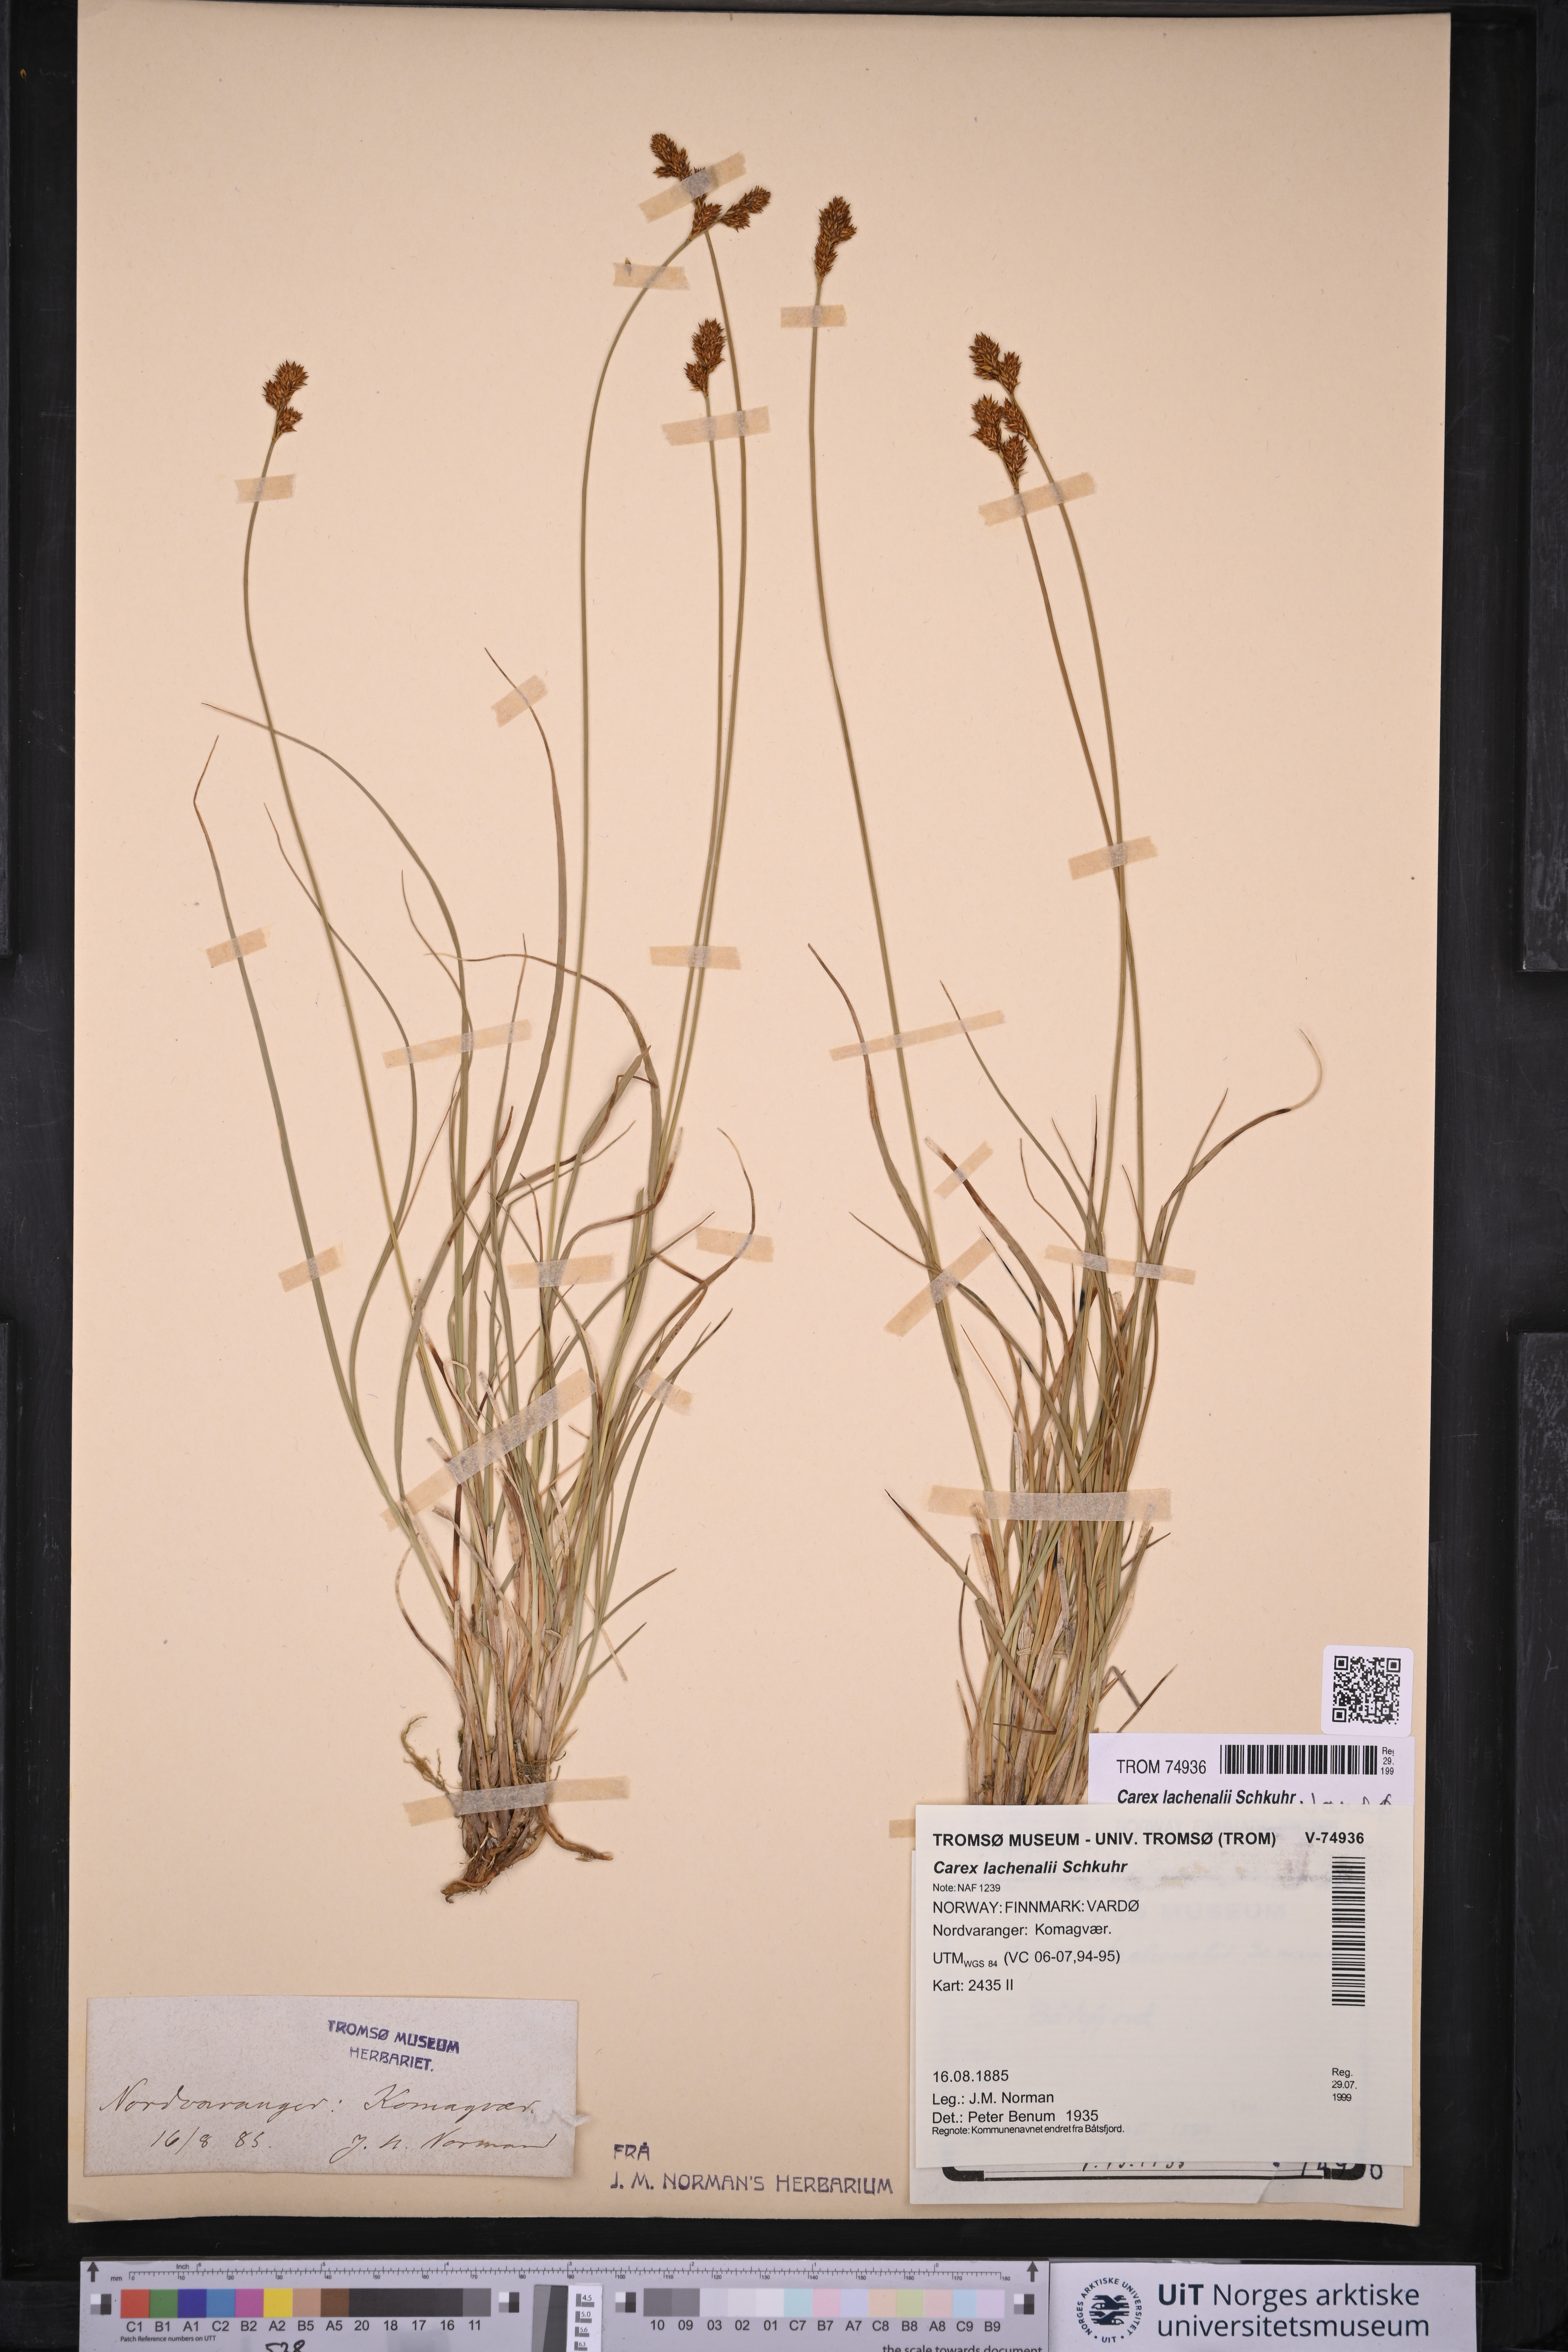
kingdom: Plantae
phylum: Tracheophyta
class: Liliopsida
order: Poales
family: Cyperaceae
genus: Carex
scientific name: Carex lachenalii
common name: Hare's-foot sedge
